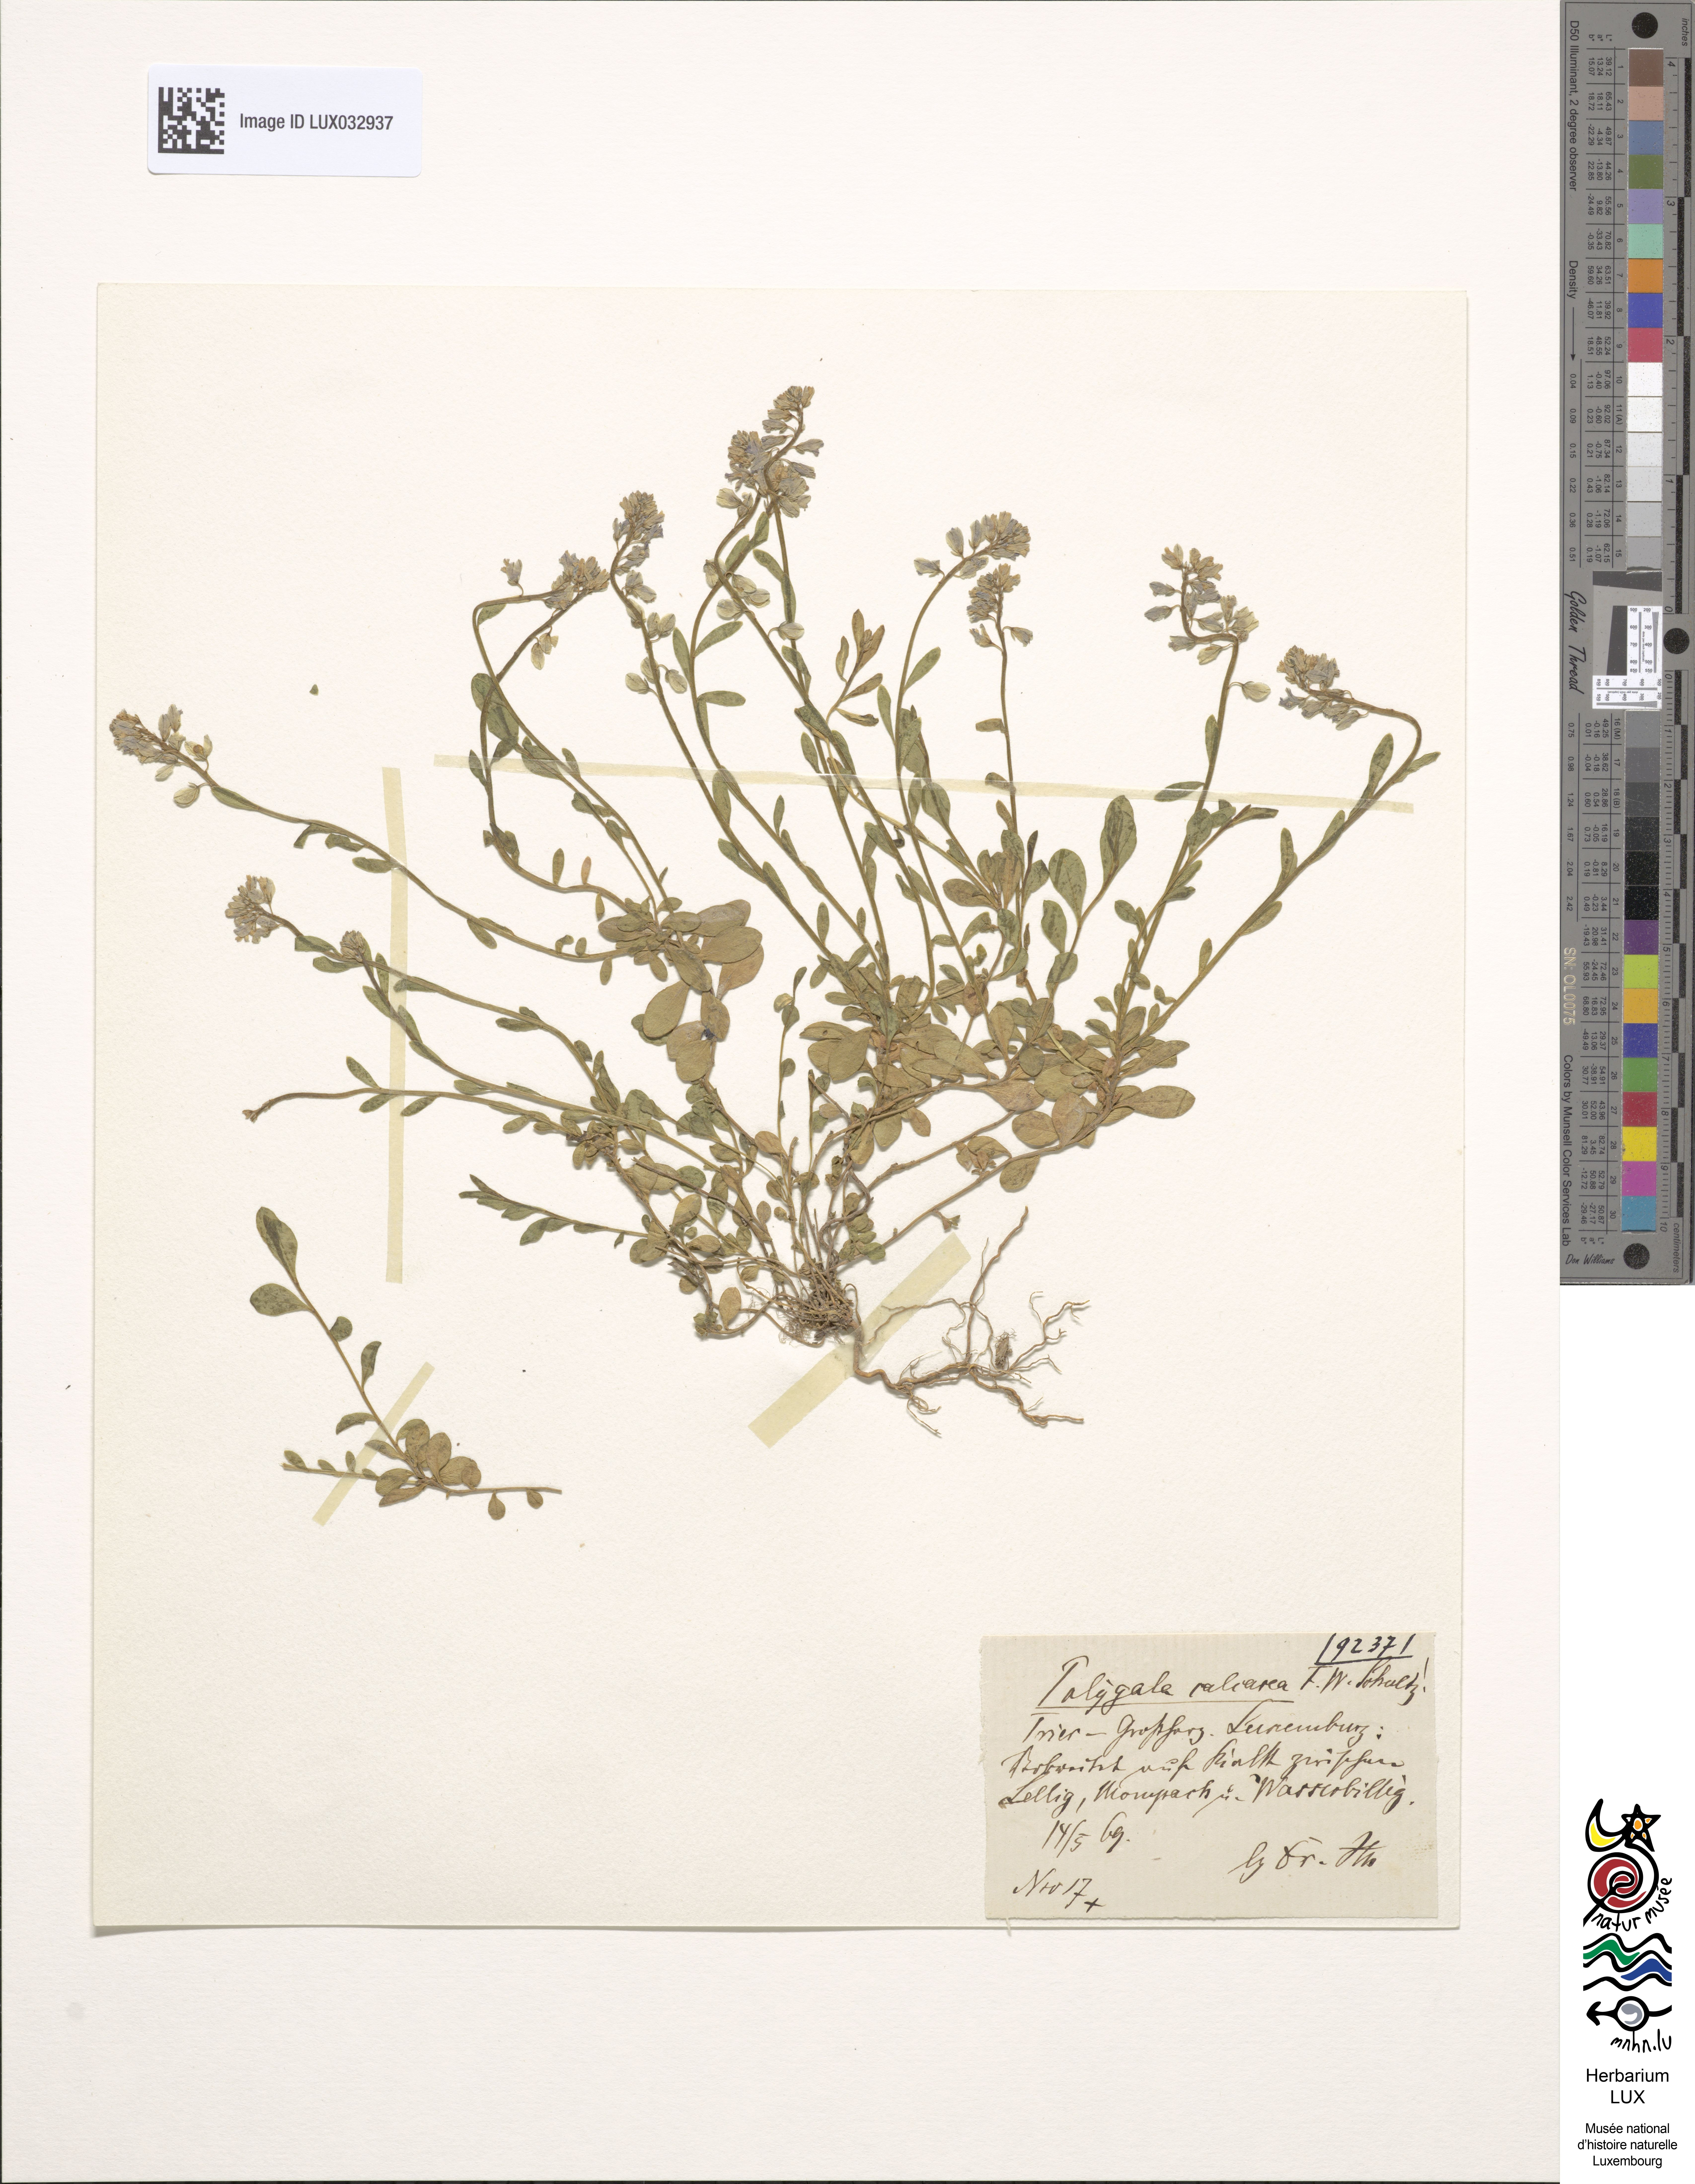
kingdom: Plantae
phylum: Tracheophyta
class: Magnoliopsida
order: Fabales
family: Polygalaceae
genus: Polygala
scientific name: Polygala calcarea
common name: Chalk milkwort
